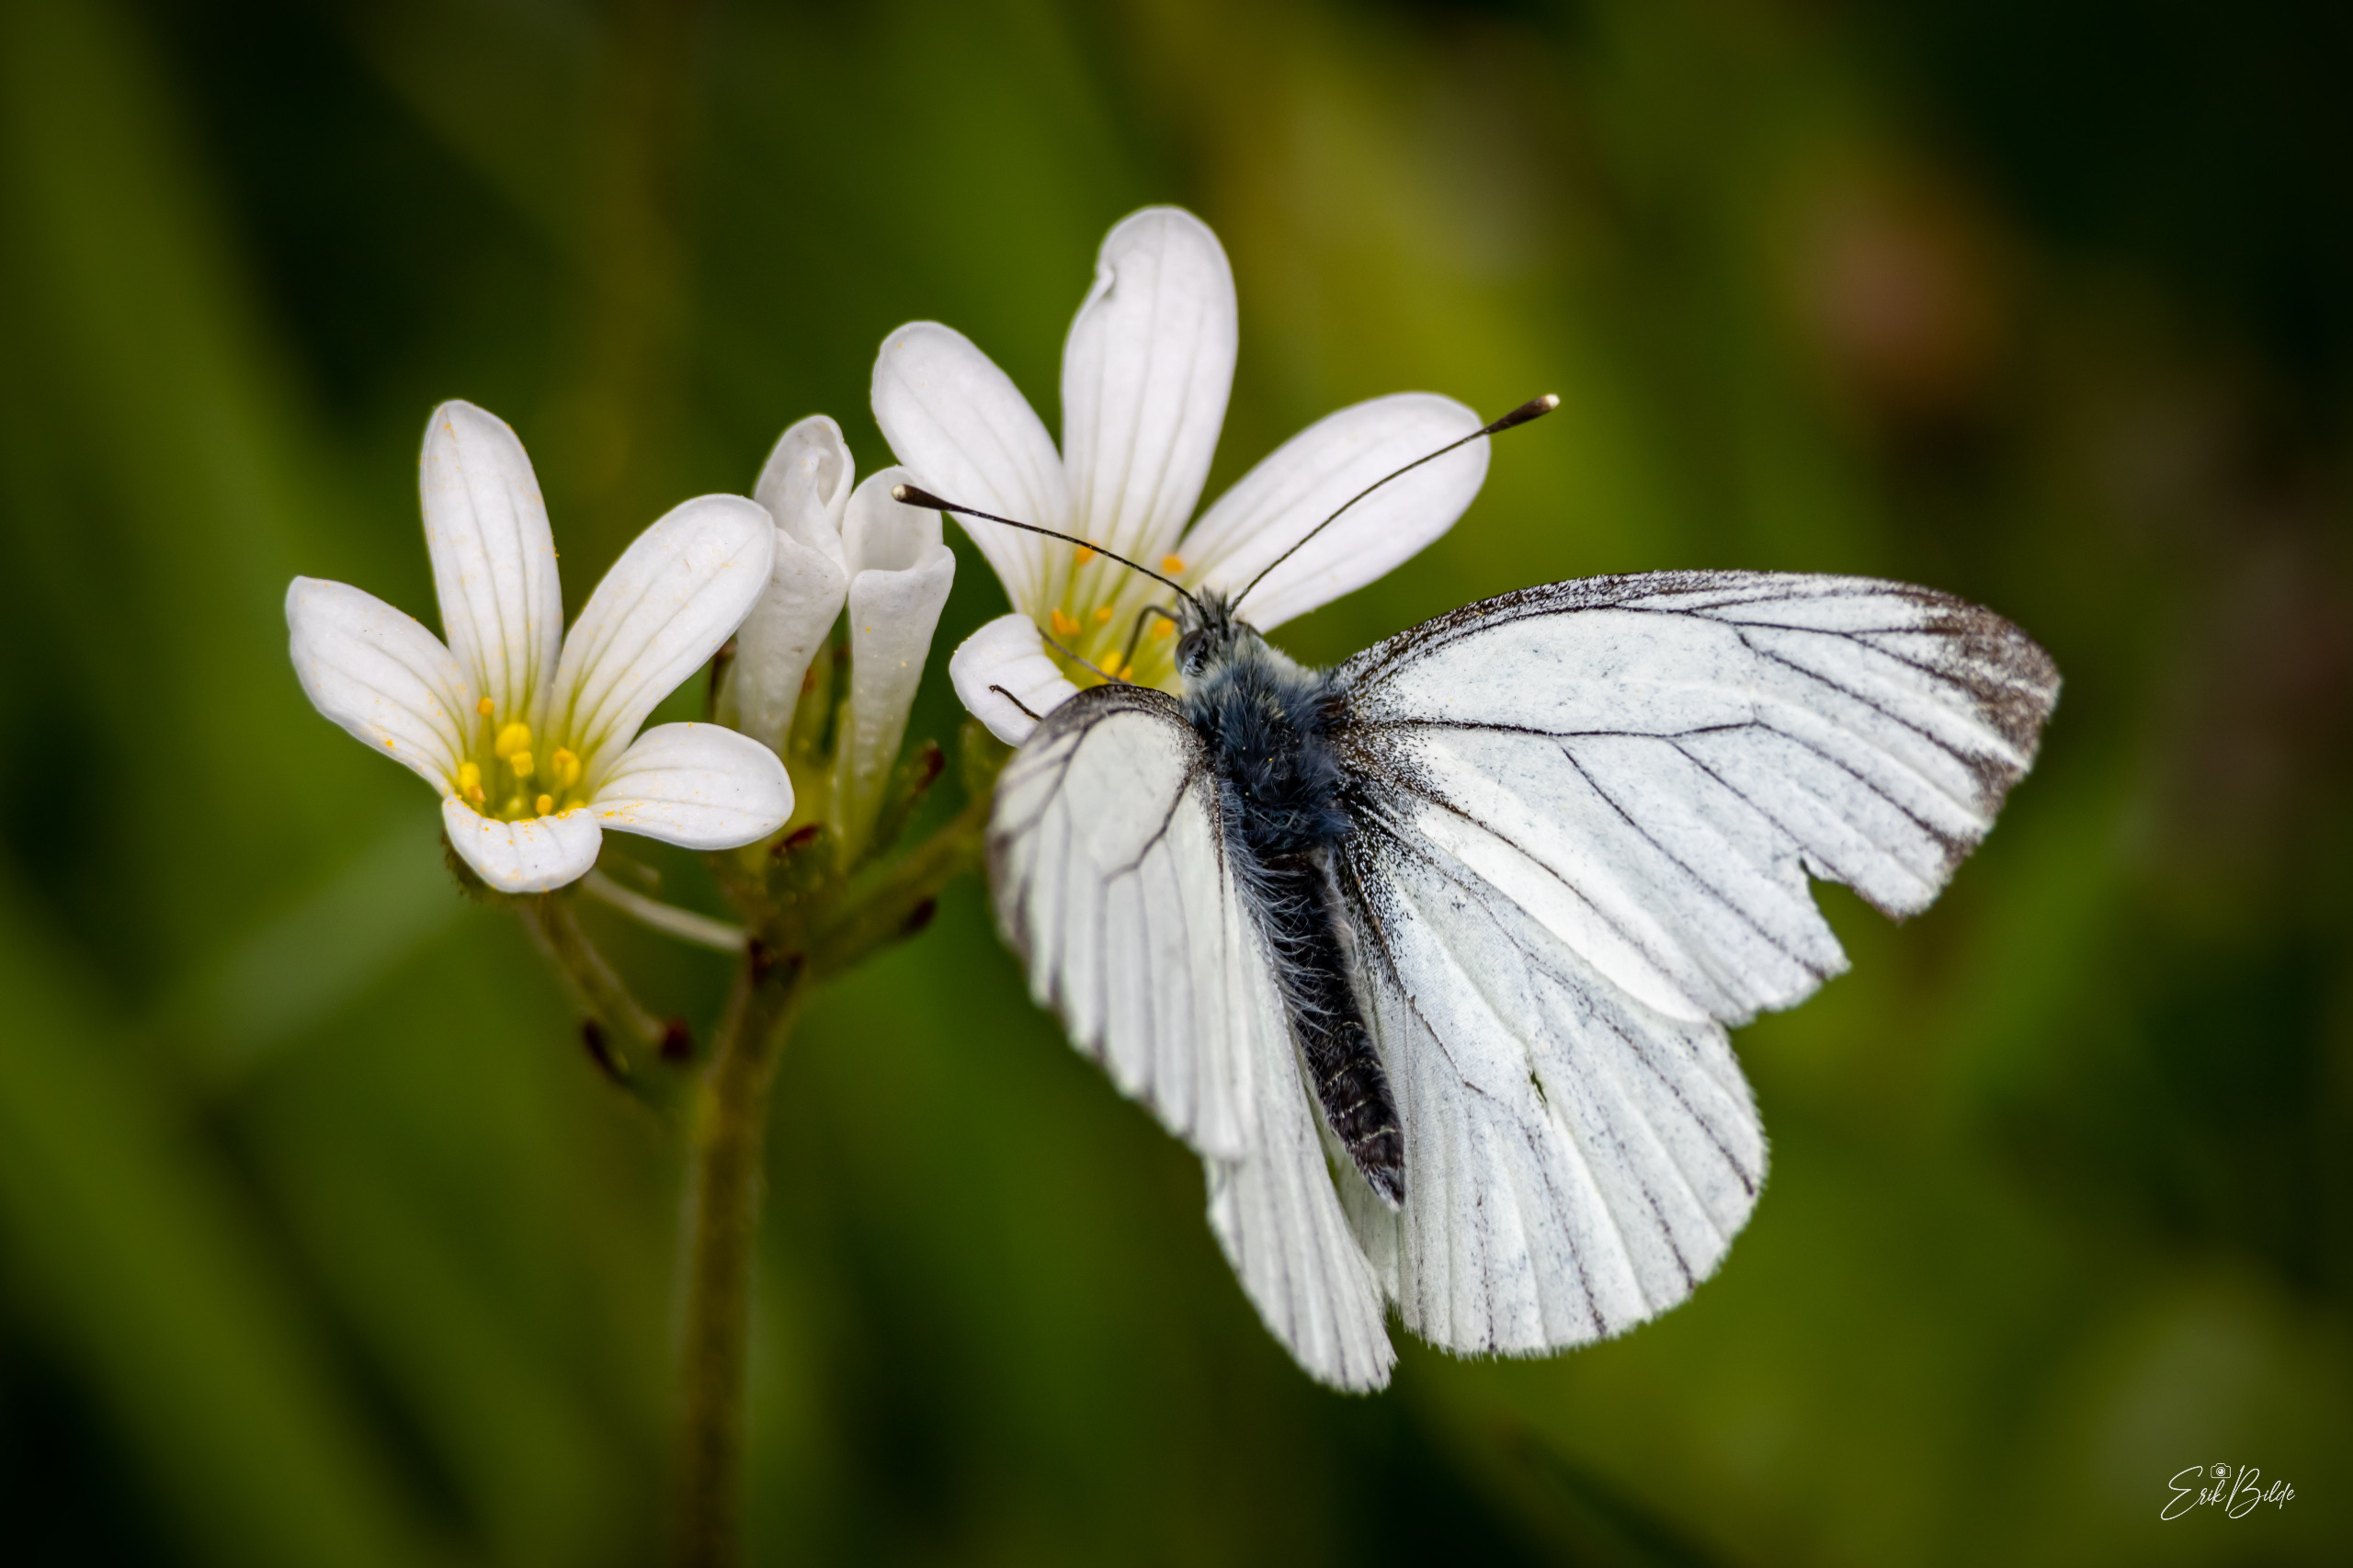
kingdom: Animalia
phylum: Arthropoda
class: Insecta
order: Lepidoptera
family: Pieridae
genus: Pieris
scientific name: Pieris napi
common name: Grønåret kålsommerfugl
